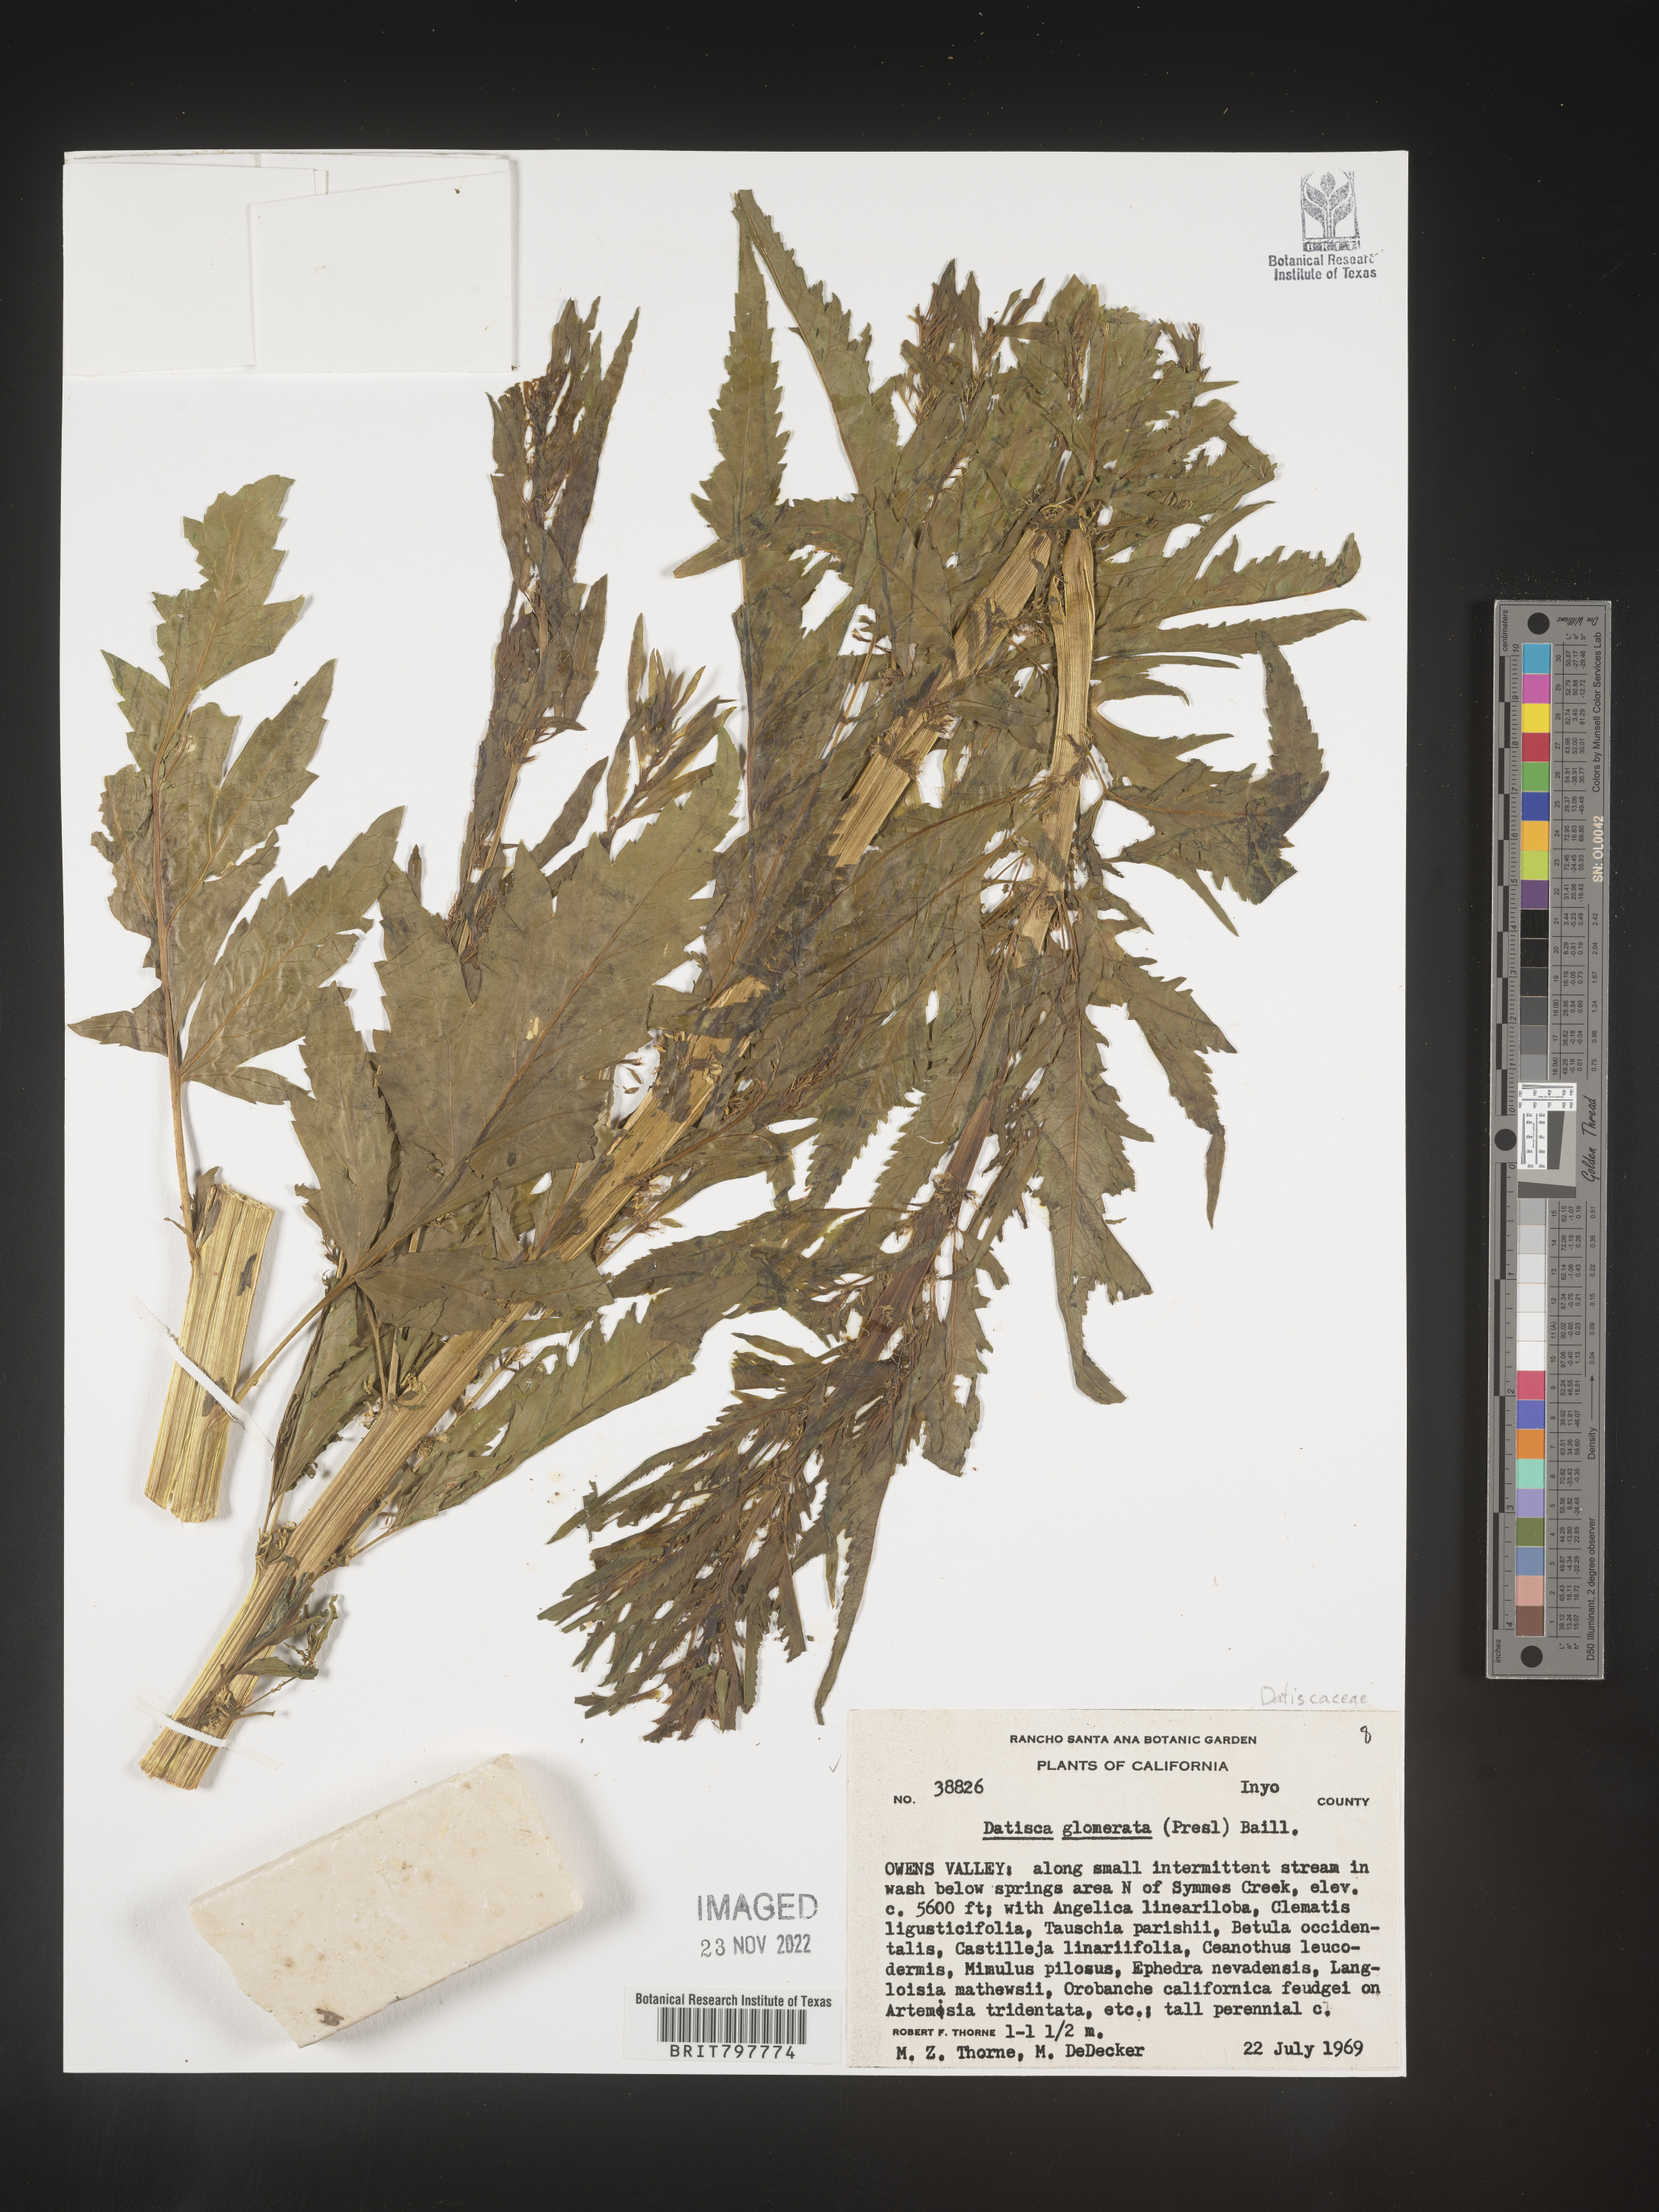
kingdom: Plantae
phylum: Tracheophyta
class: Magnoliopsida
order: Cucurbitales
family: Datiscaceae
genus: Datisca
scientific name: Datisca
